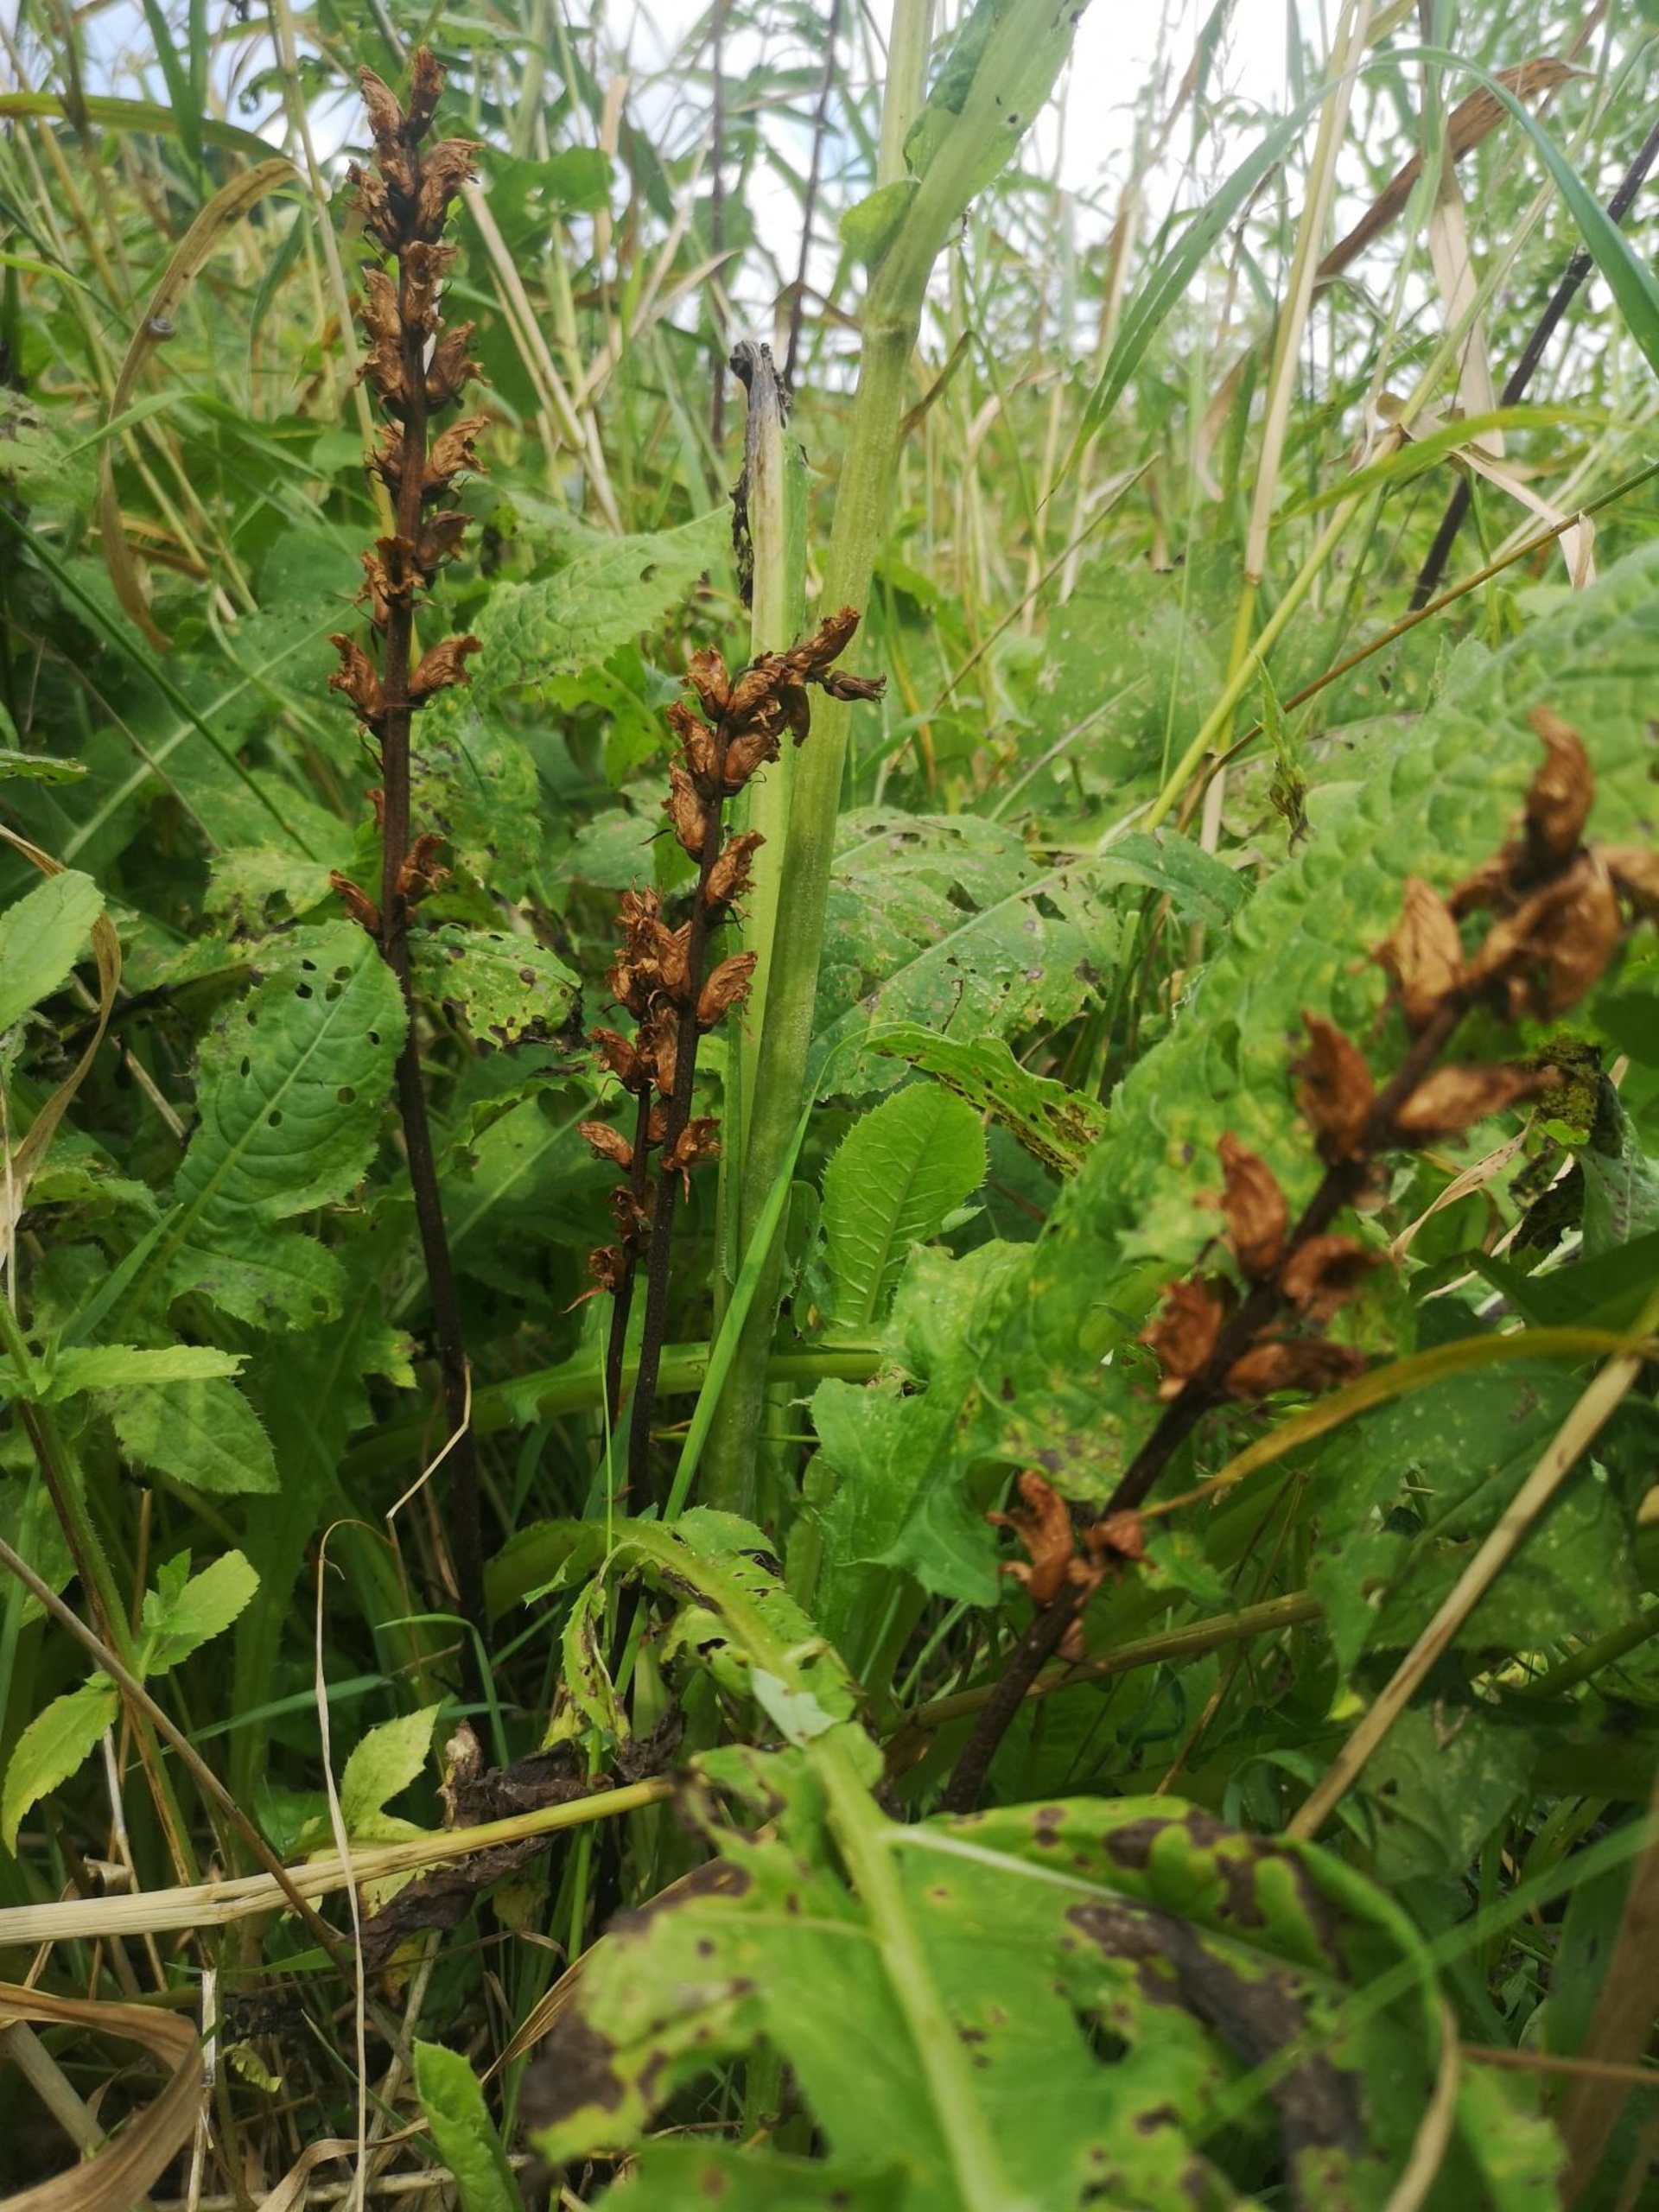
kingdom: Plantae
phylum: Tracheophyta
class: Magnoliopsida
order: Lamiales
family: Orobanchaceae
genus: Orobanche
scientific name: Orobanche reticulata
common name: Tidsel-gyvelkvæler
